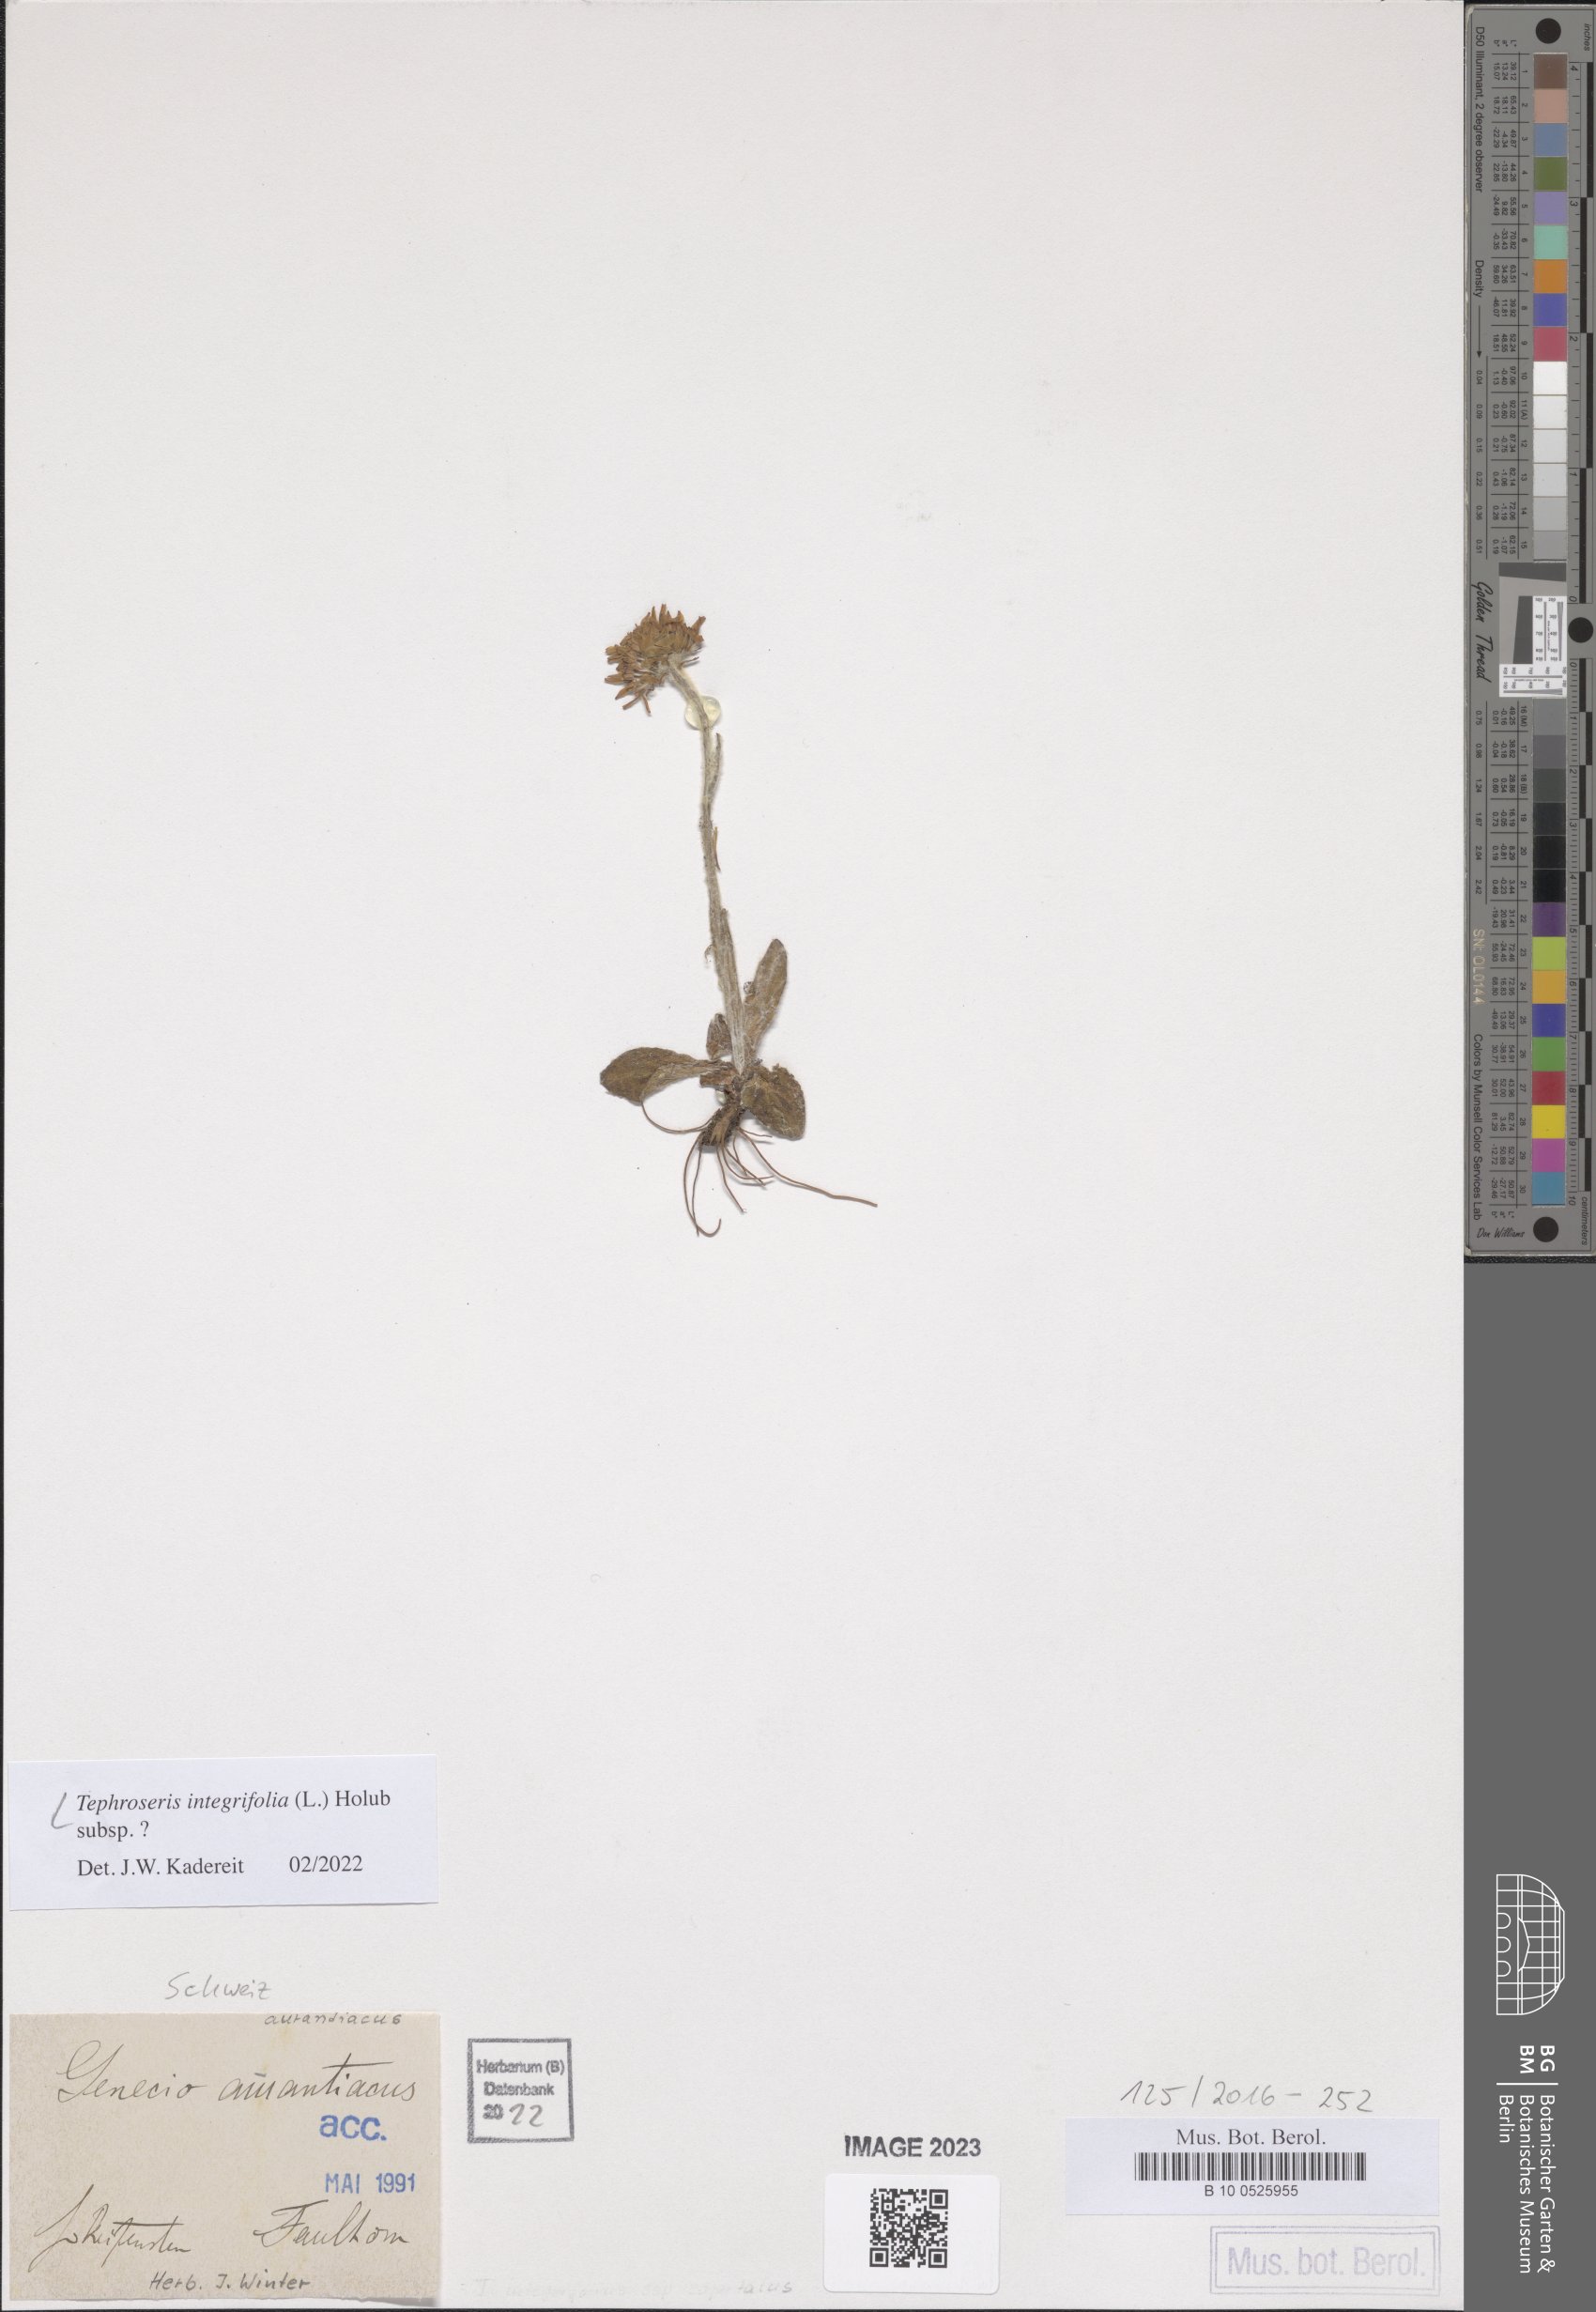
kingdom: Plantae
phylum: Tracheophyta
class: Magnoliopsida
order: Asterales
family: Asteraceae
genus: Tephroseris
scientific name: Tephroseris integrifolia
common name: Field fleawort
